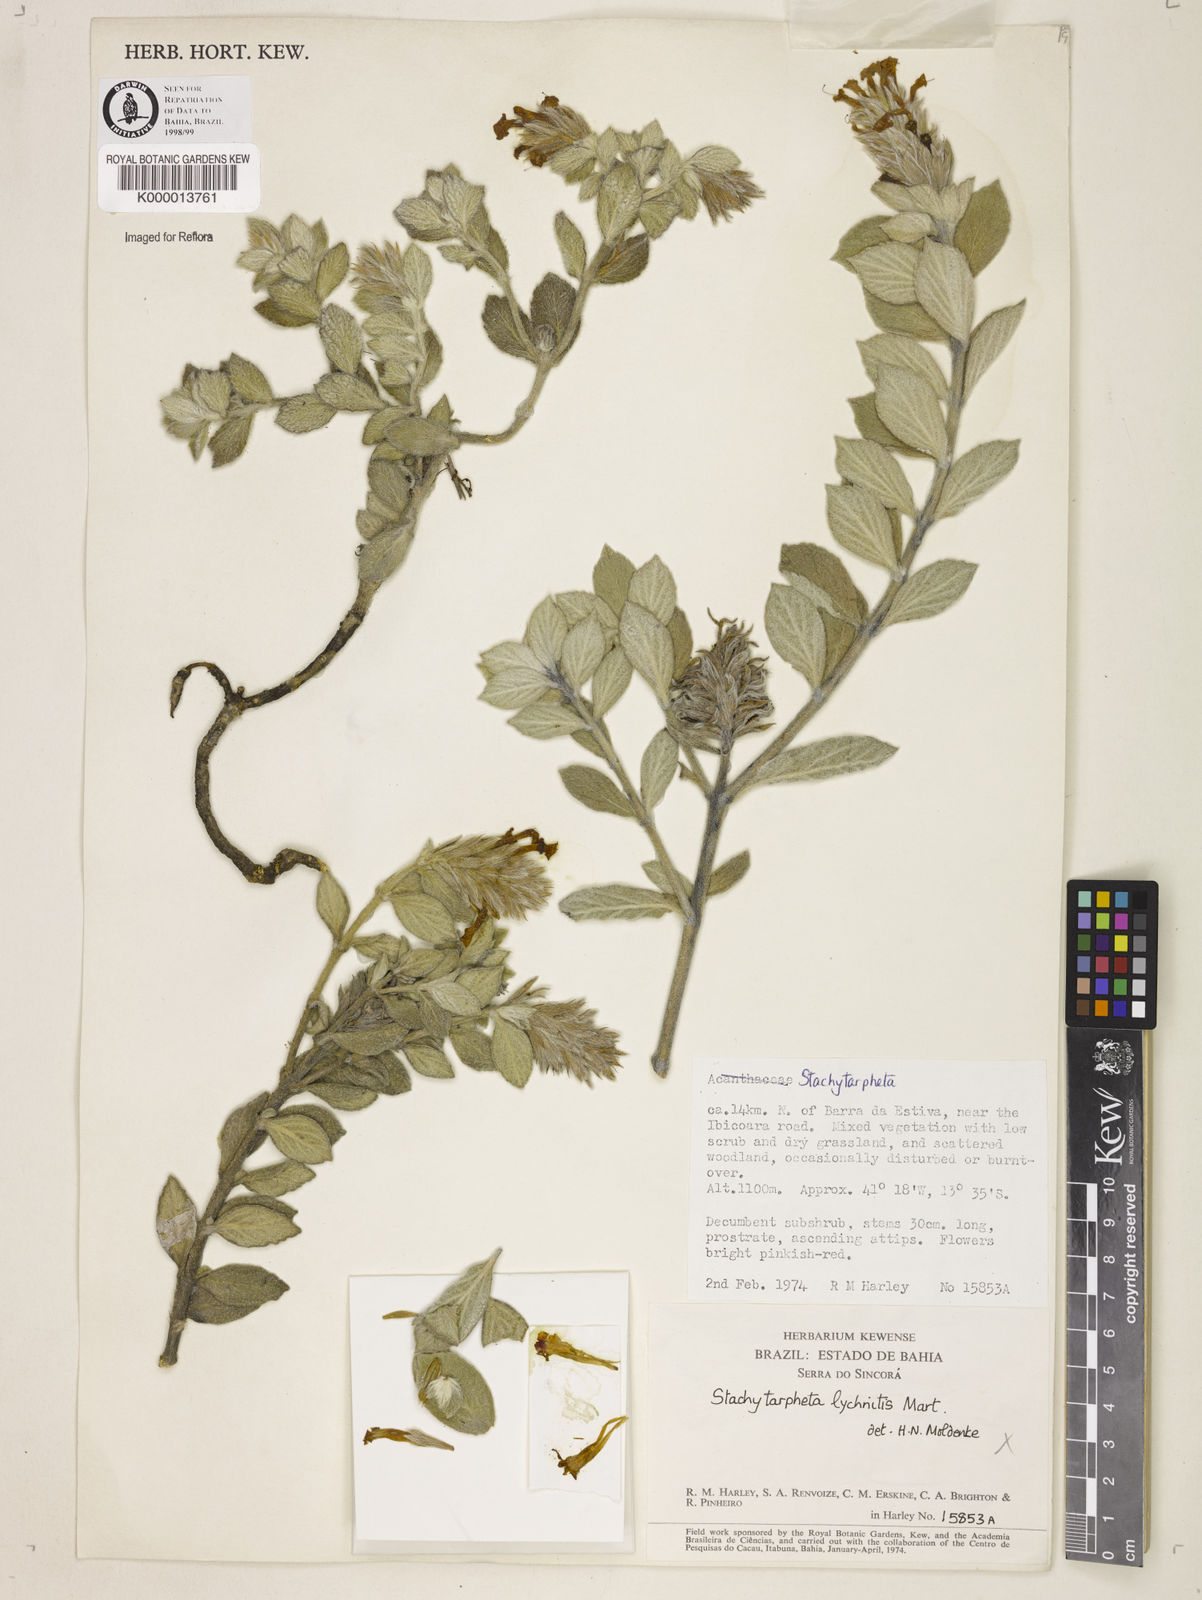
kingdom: Plantae
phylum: Tracheophyta
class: Magnoliopsida
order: Lamiales
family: Verbenaceae
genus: Stachytarpheta
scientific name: Stachytarpheta
